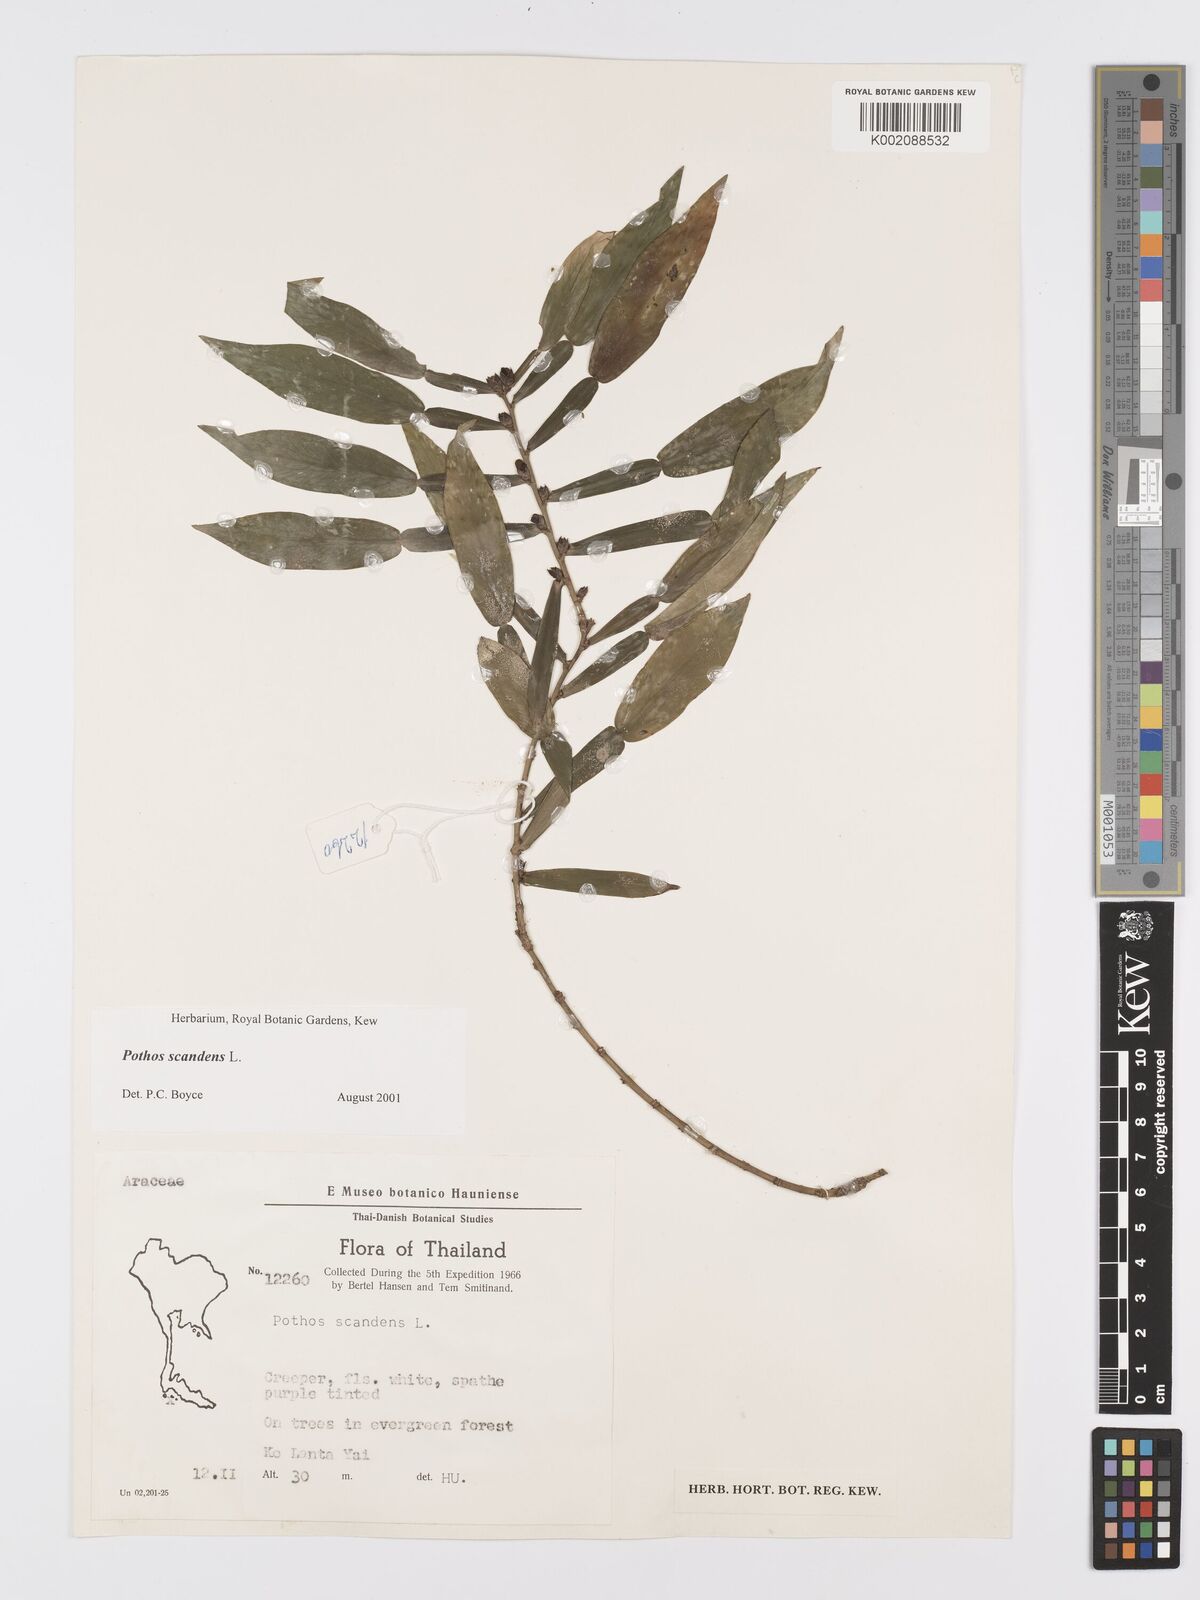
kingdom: Plantae
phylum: Tracheophyta
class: Liliopsida
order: Alismatales
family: Araceae
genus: Pothos
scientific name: Pothos scandens
